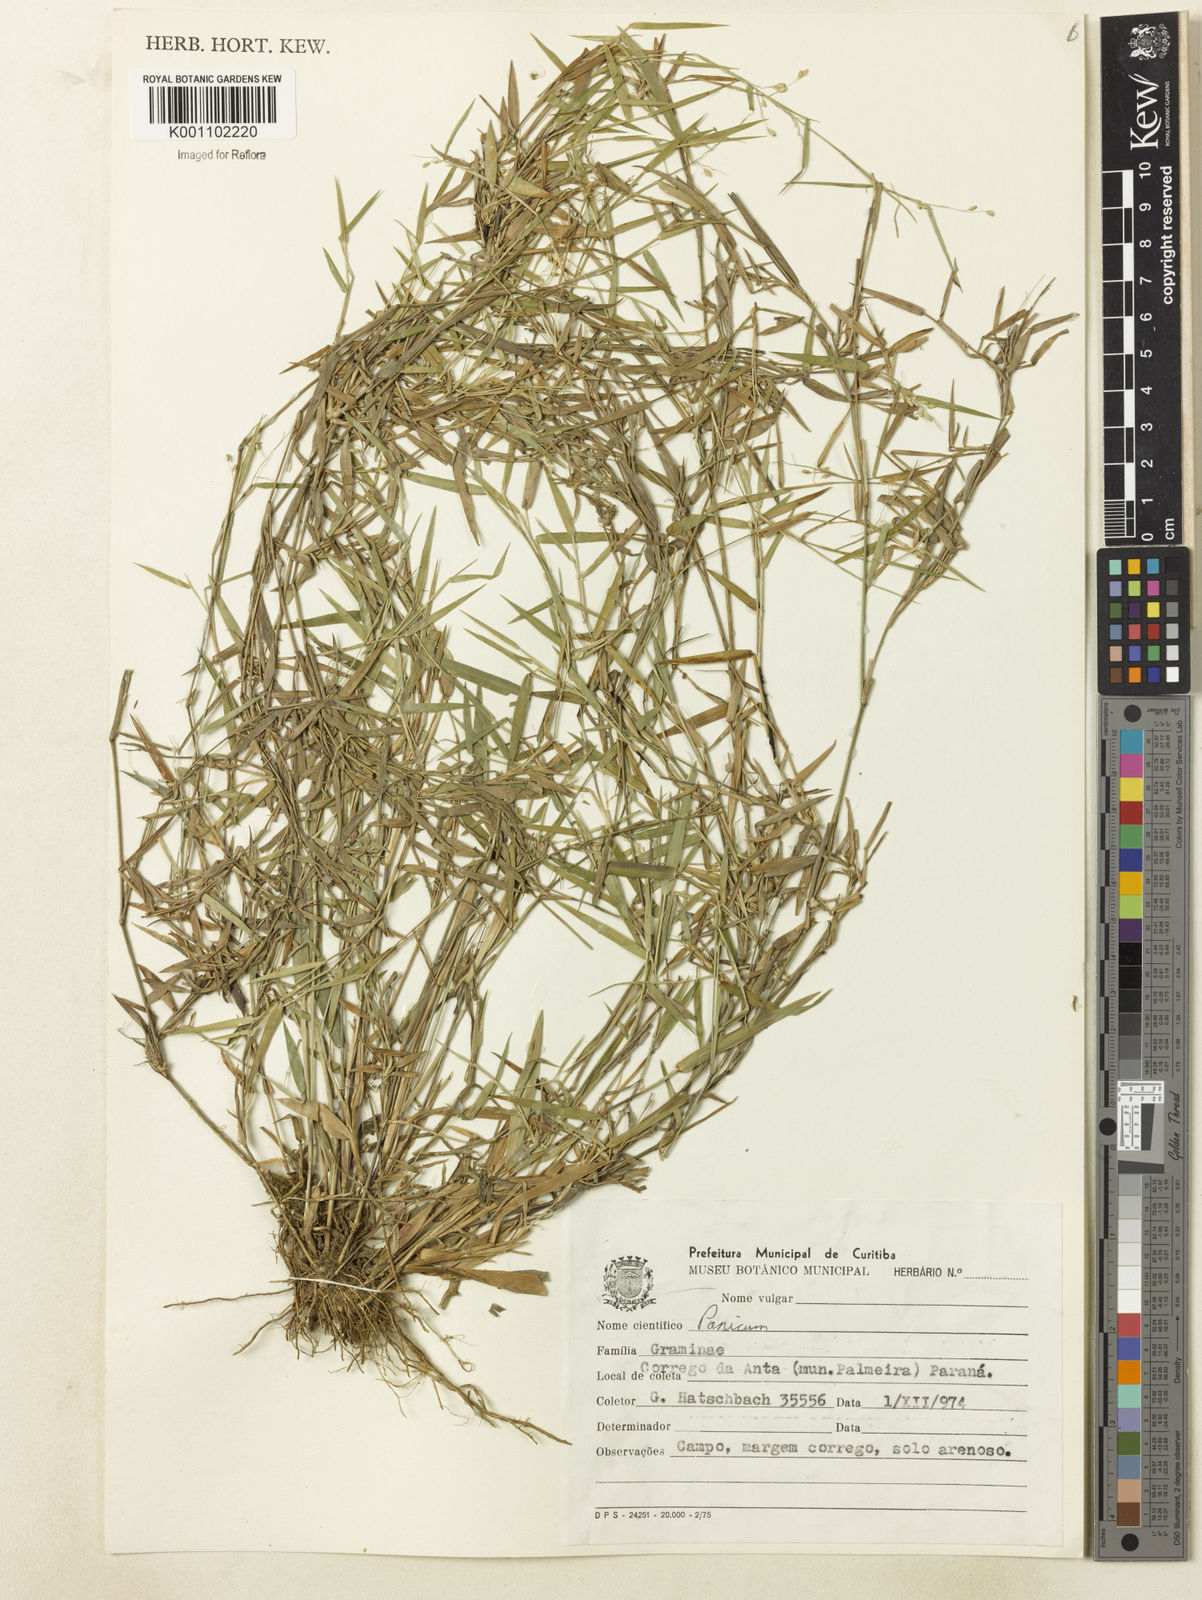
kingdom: Plantae
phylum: Tracheophyta
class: Liliopsida
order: Poales
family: Poaceae
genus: Dichanthelium
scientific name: Dichanthelium sabulorum
